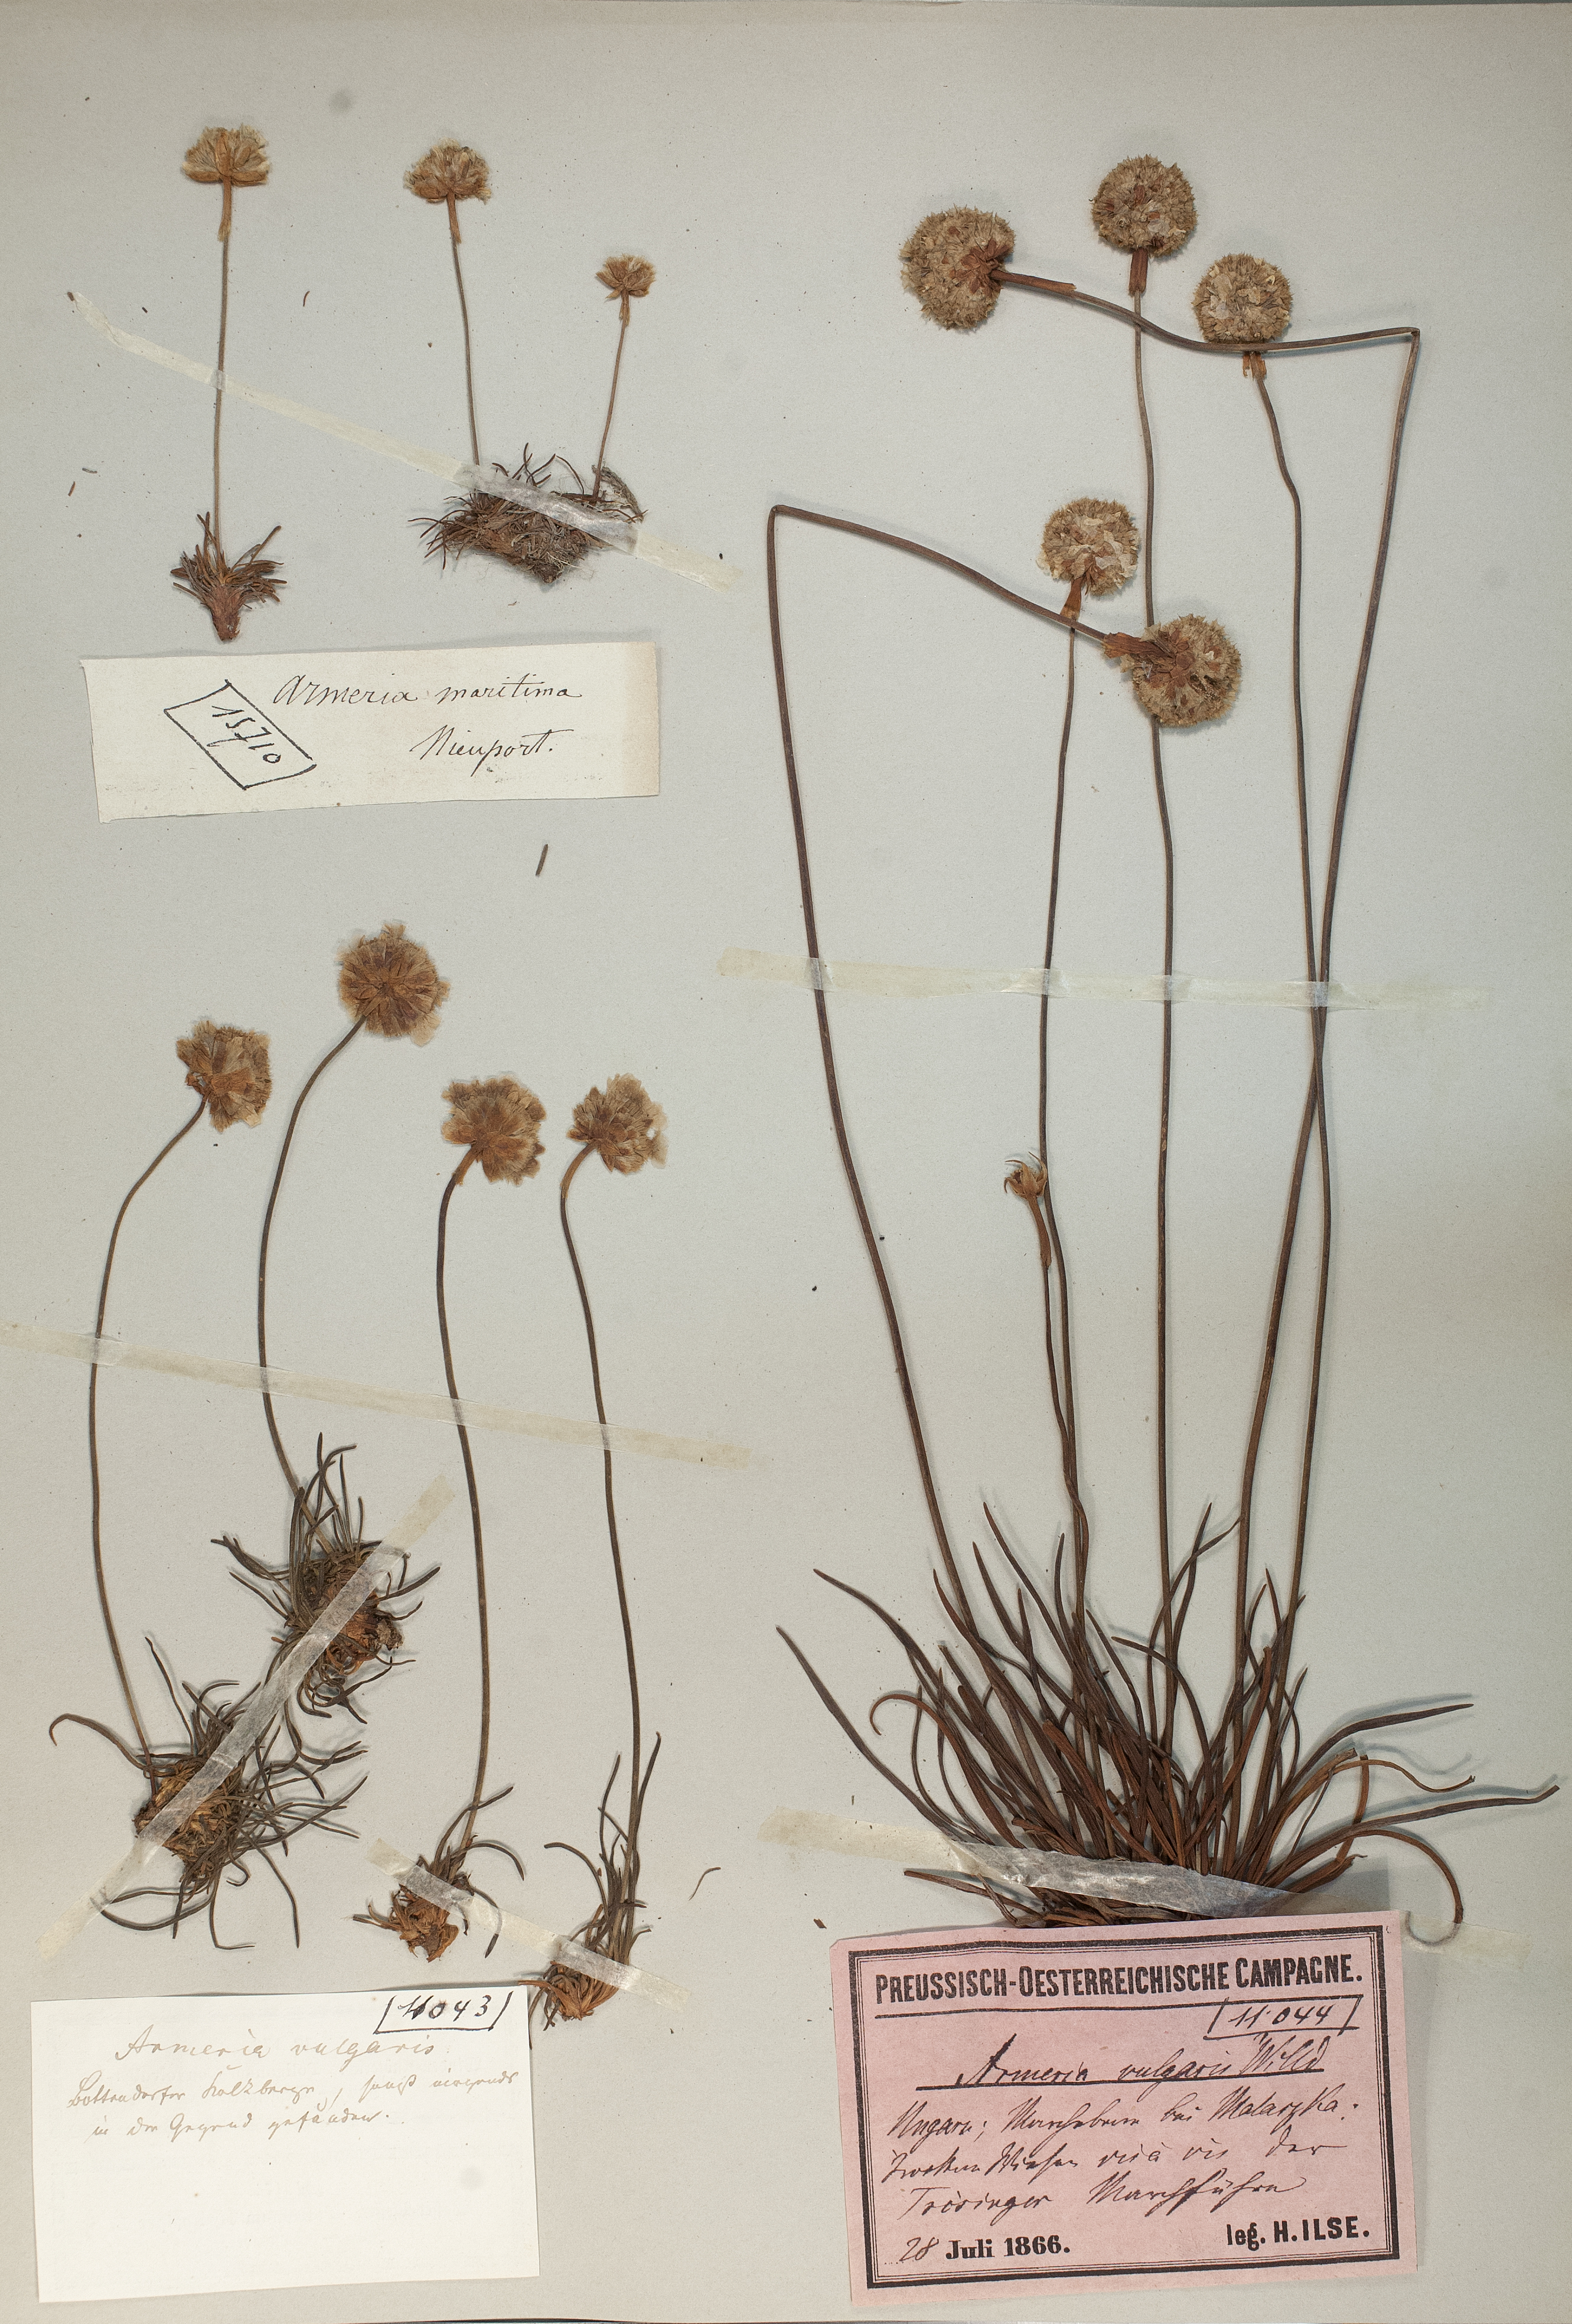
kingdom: Plantae
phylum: Tracheophyta
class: Magnoliopsida
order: Caryophyllales
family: Plumbaginaceae
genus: Armeria
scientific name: Armeria maritima
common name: Thrift
